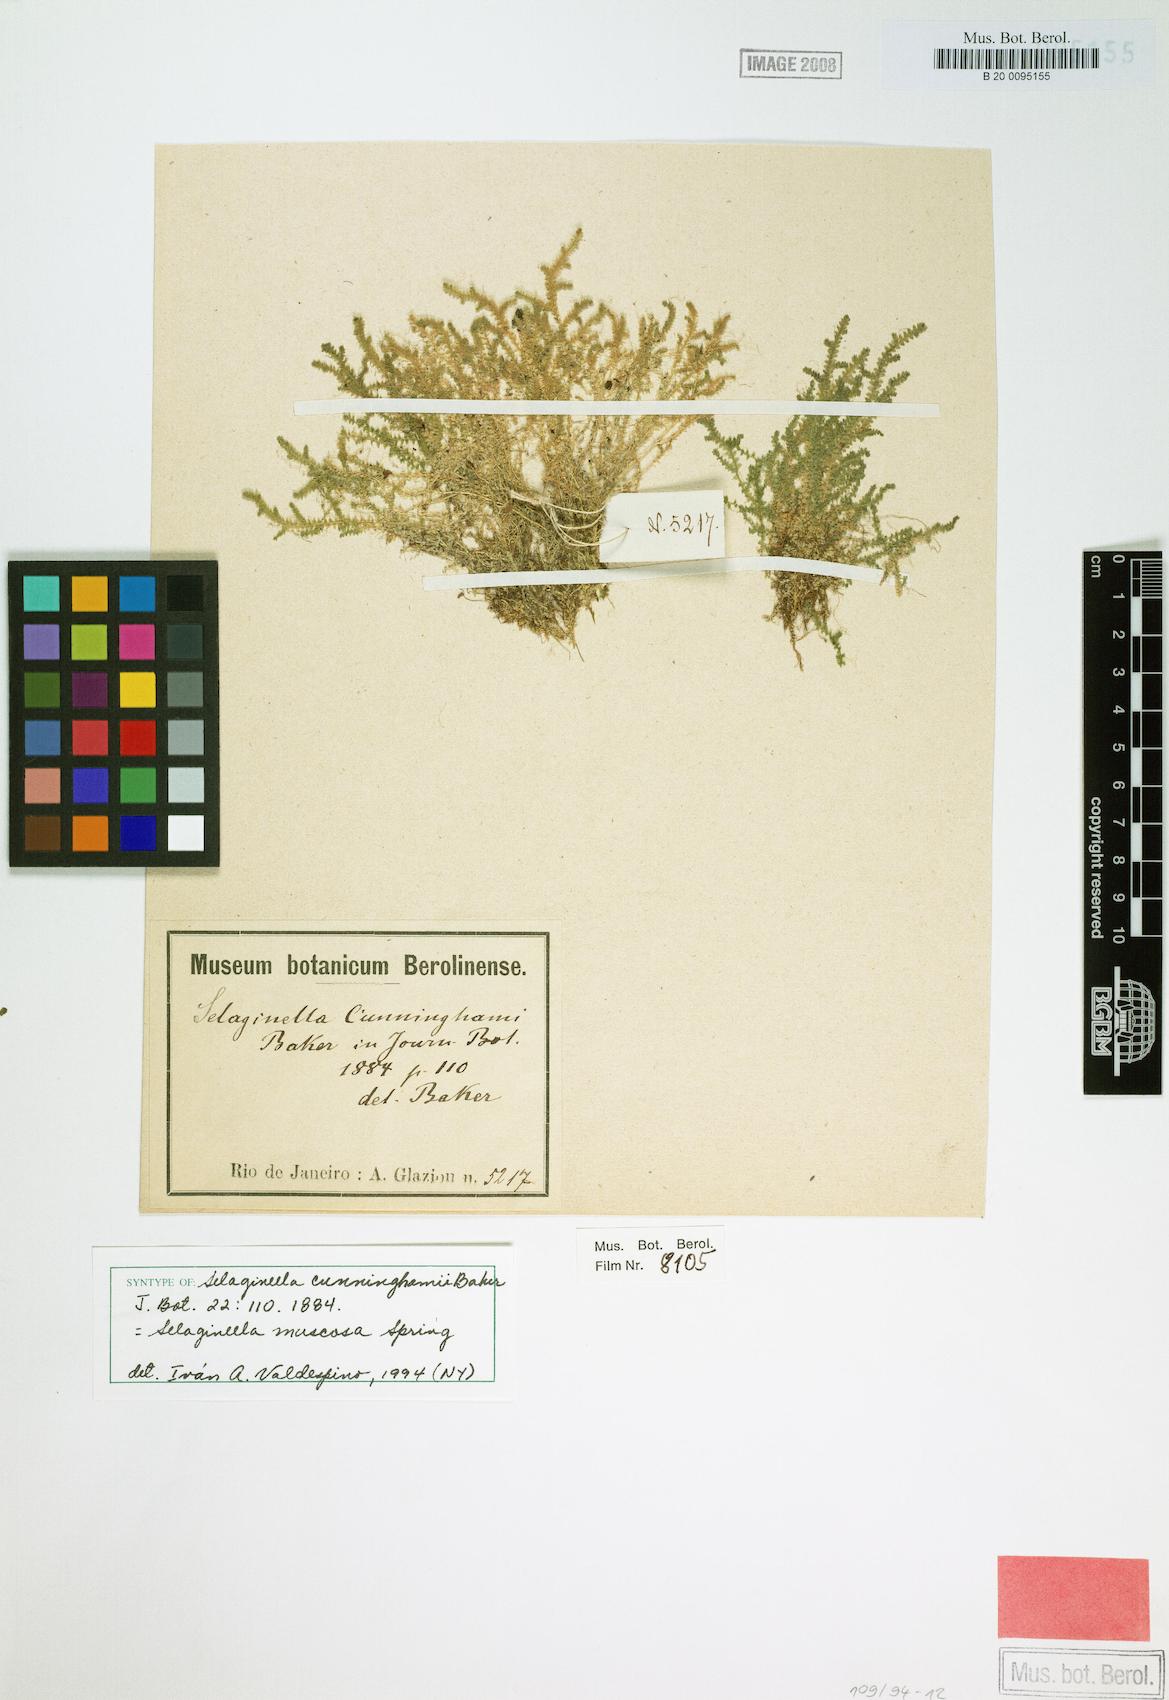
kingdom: Plantae
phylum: Tracheophyta
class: Lycopodiopsida
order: Selaginellales
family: Selaginellaceae
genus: Selaginella
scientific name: Selaginella muscosa
